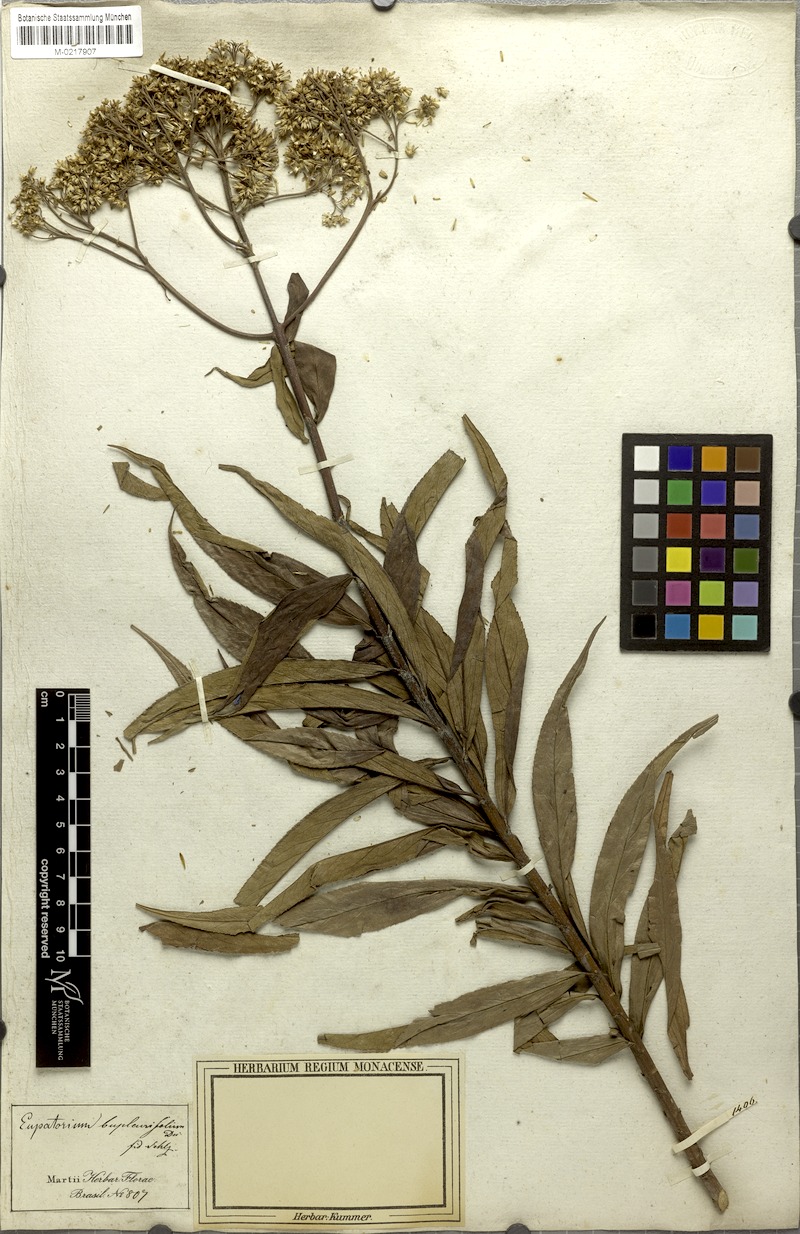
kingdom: Plantae
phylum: Tracheophyta
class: Magnoliopsida
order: Asterales
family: Asteraceae
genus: Campovassouria
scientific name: Campovassouria cruciata
